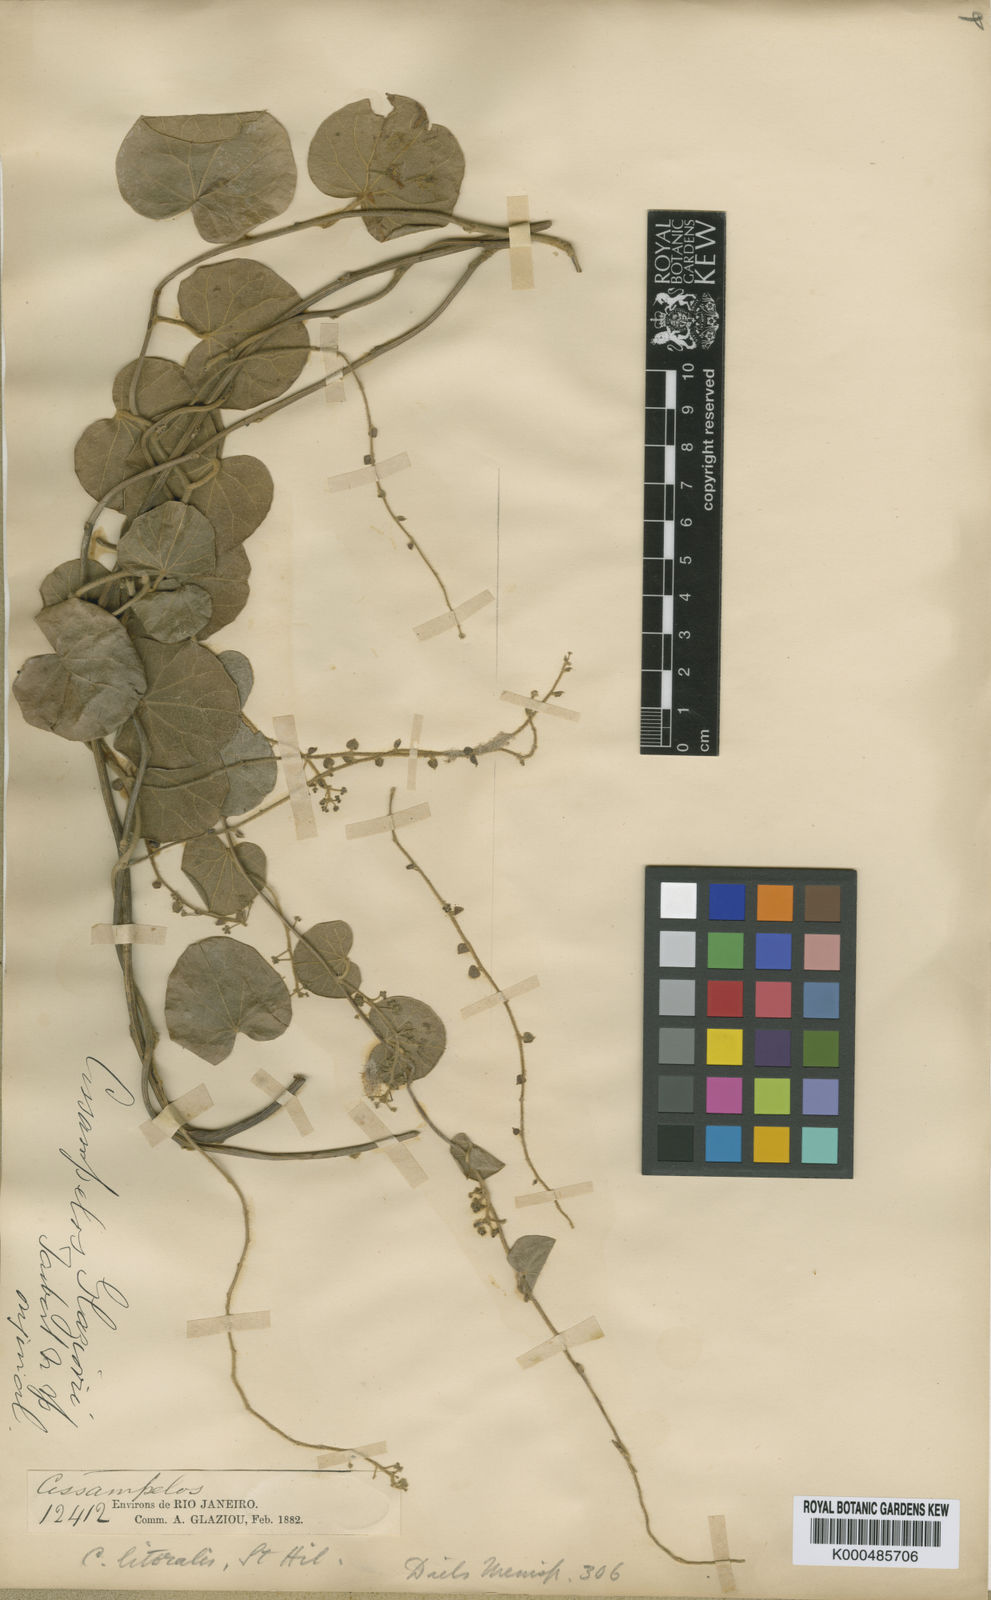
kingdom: Plantae
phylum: Tracheophyta
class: Magnoliopsida
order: Ranunculales
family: Menispermaceae
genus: Cissampelos
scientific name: Cissampelos pareira
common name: Velvetleaf
